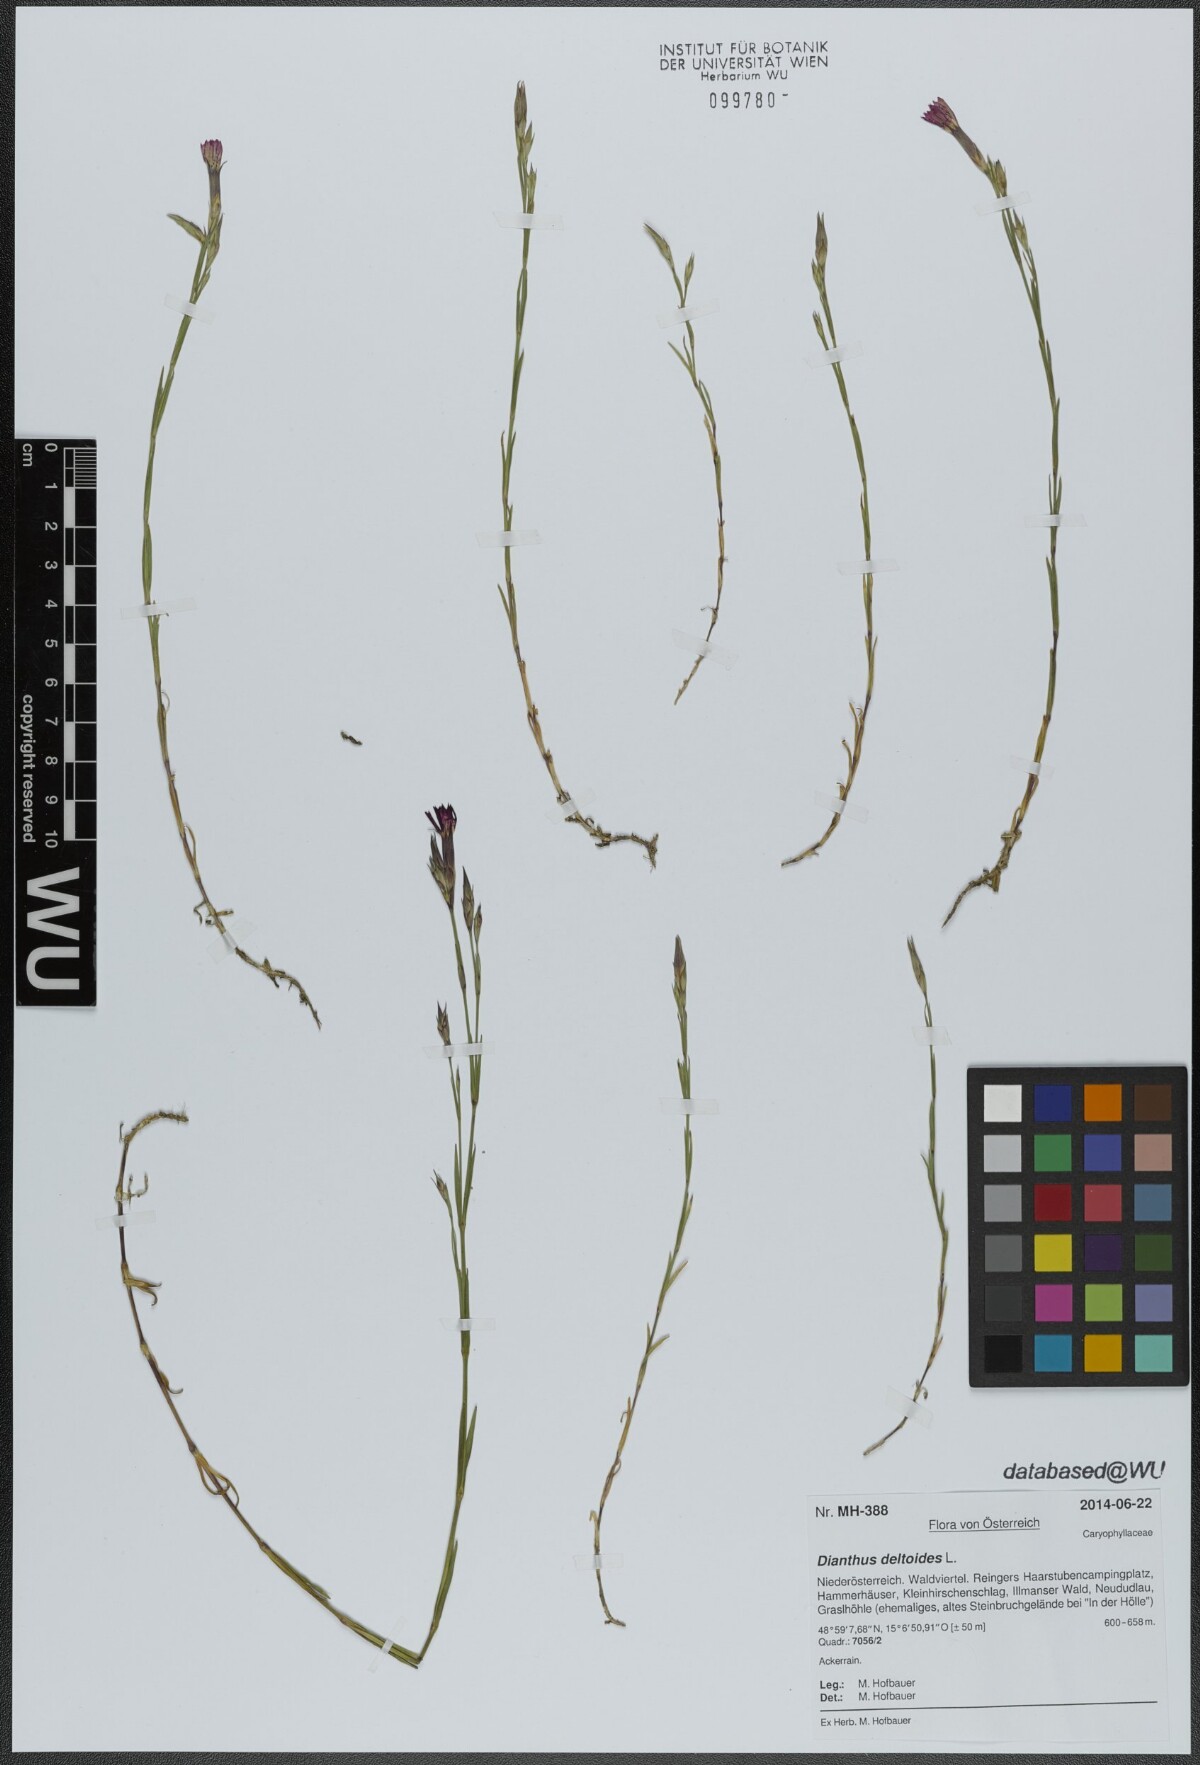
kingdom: Plantae
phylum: Tracheophyta
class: Magnoliopsida
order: Caryophyllales
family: Caryophyllaceae
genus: Dianthus
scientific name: Dianthus deltoides
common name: Maiden pink
